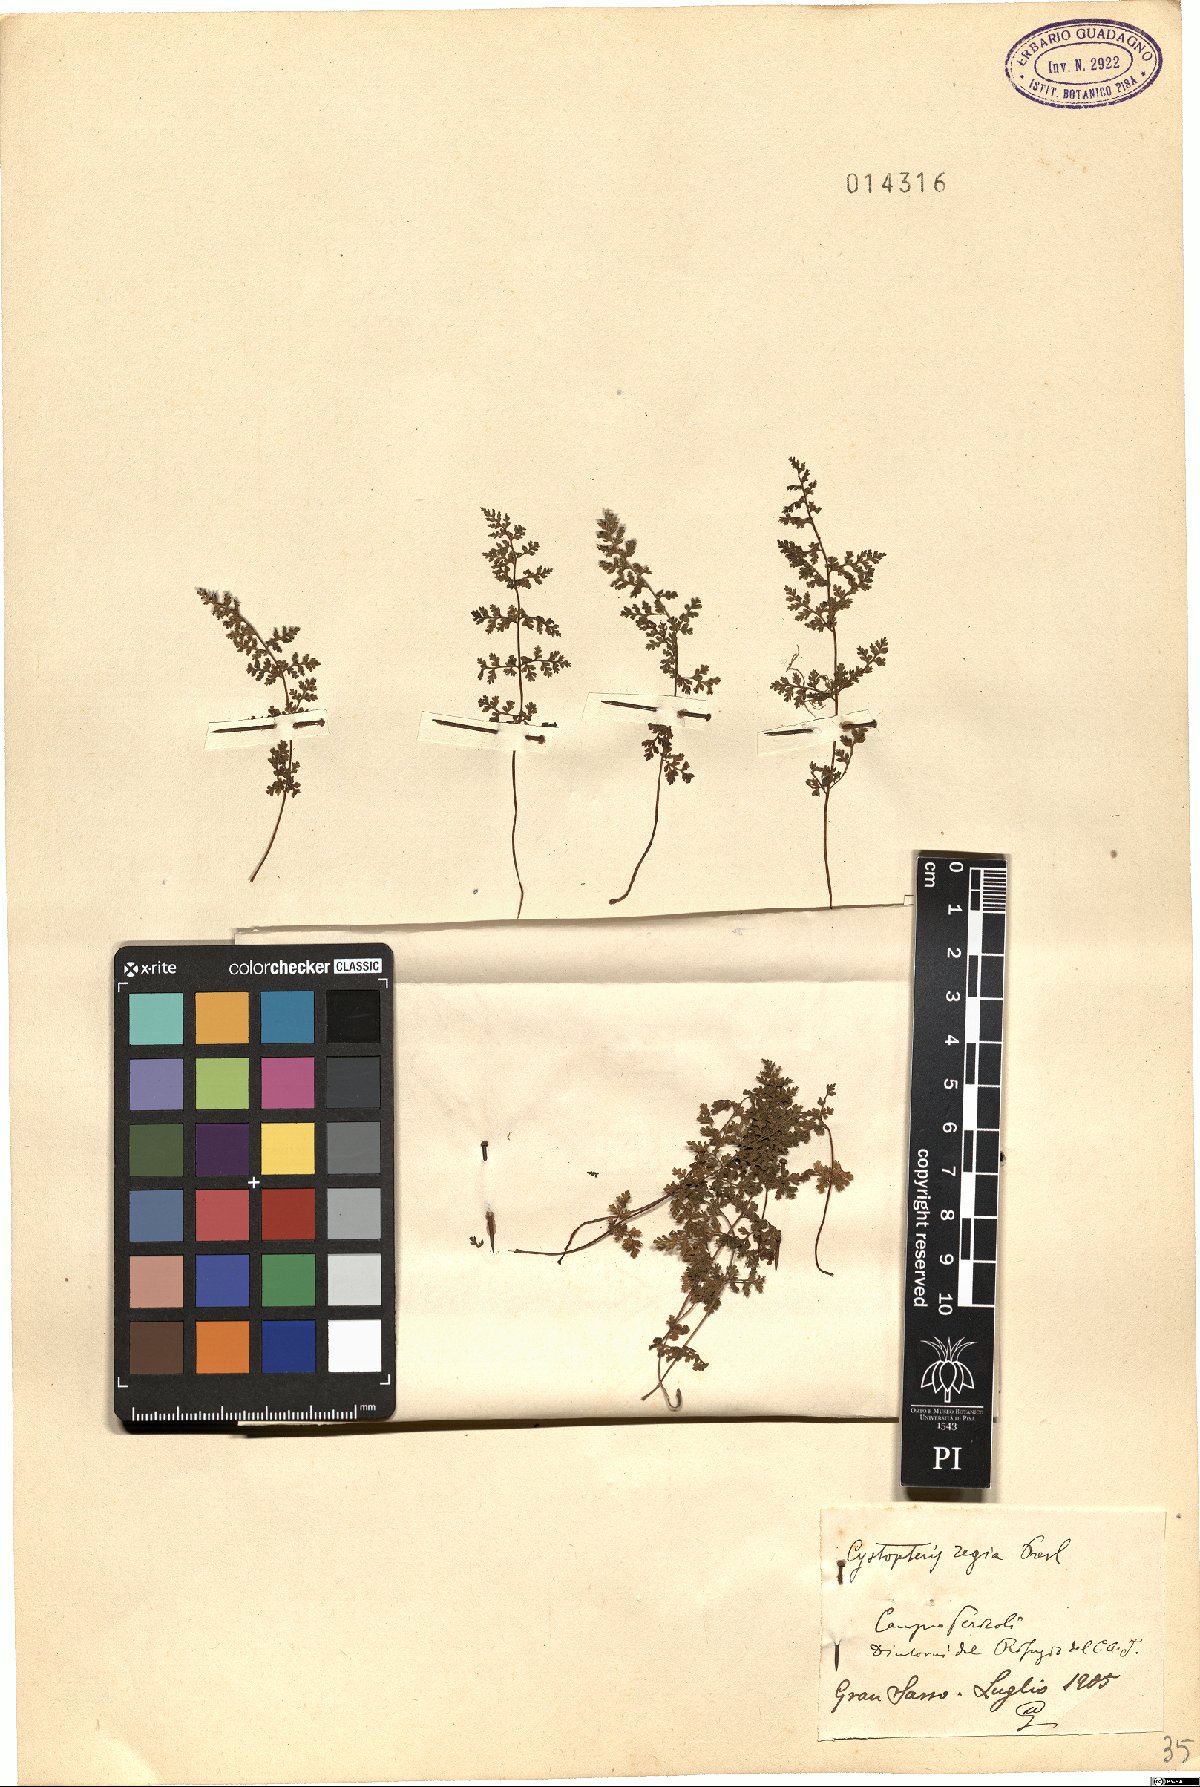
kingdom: Plantae
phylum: Tracheophyta
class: Polypodiopsida
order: Polypodiales
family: Cystopteridaceae
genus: Cystopteris
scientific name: Cystopteris alpina
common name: Alpine bladder-fern
